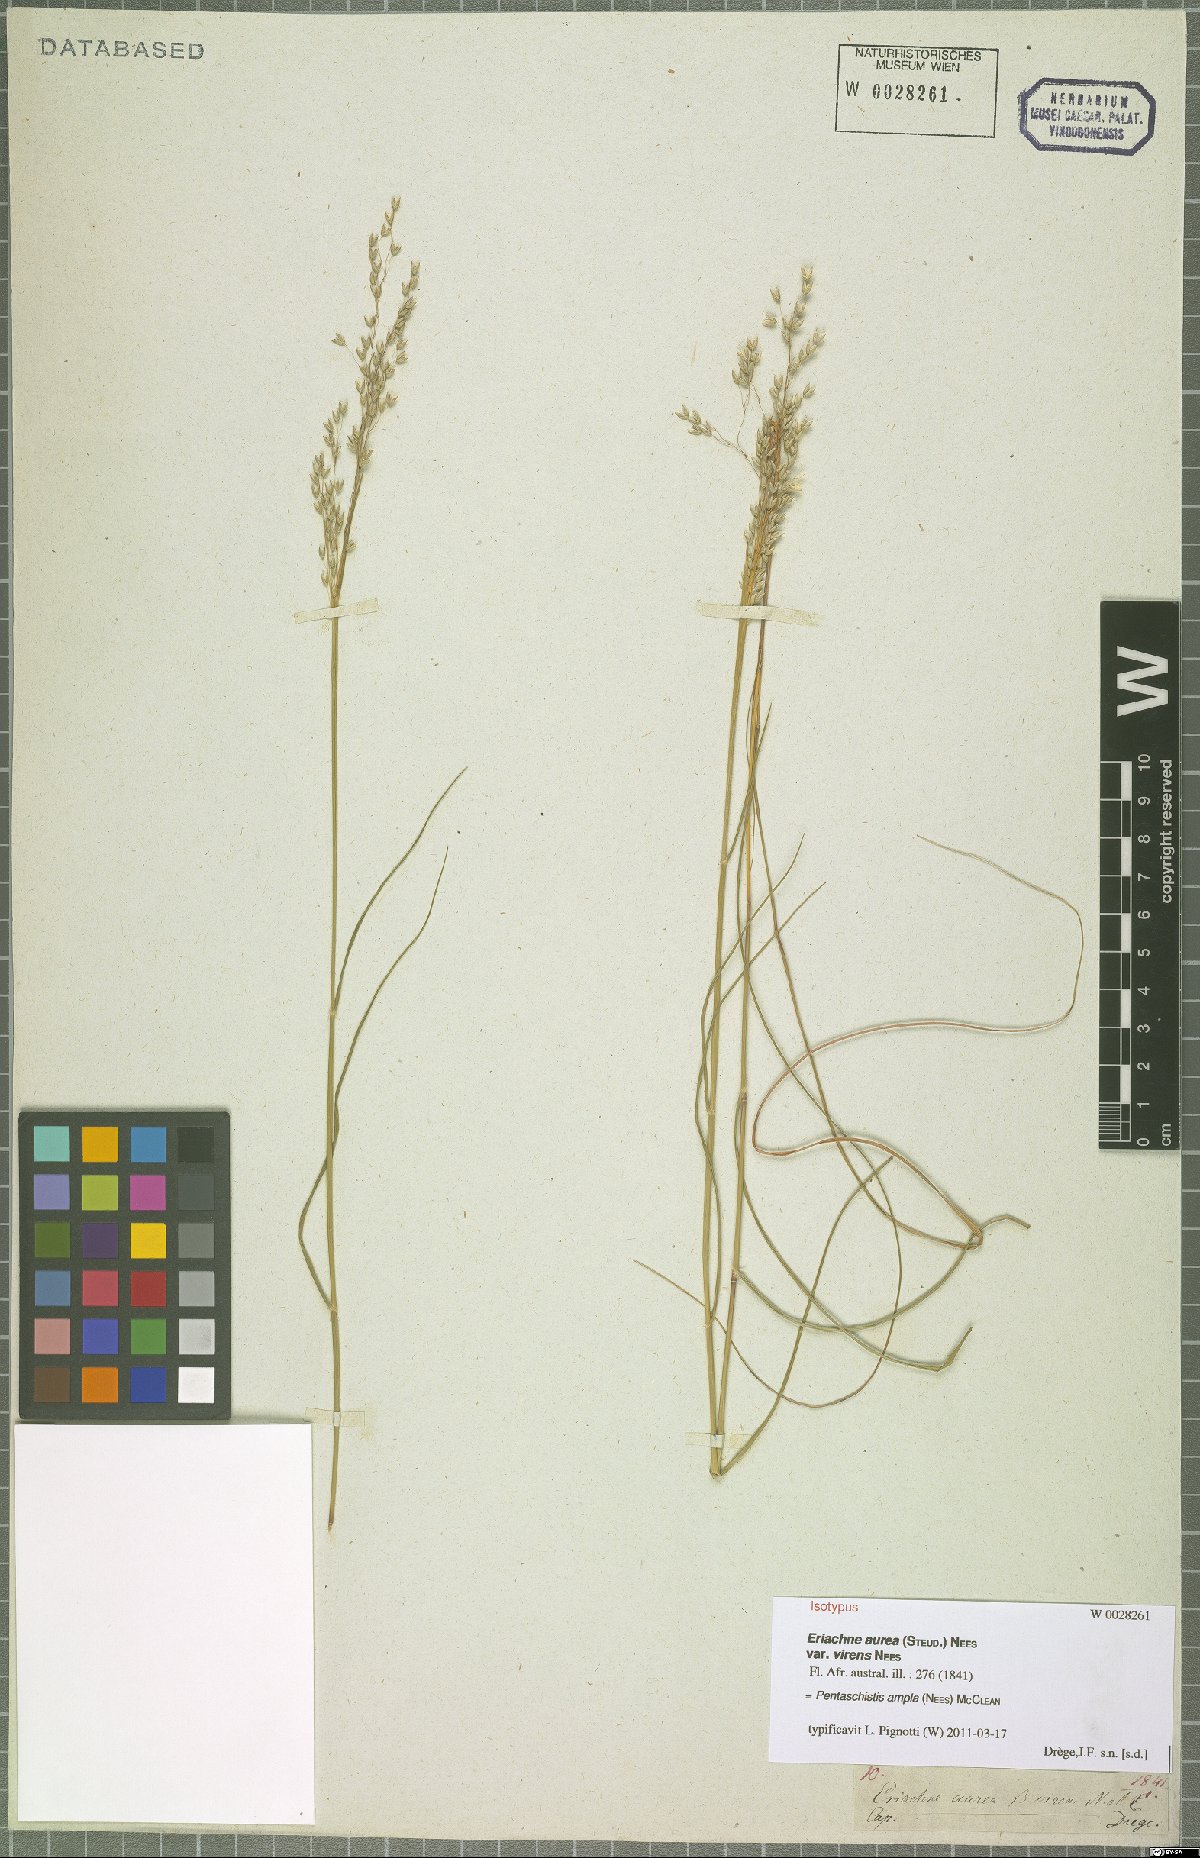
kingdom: Plantae
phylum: Tracheophyta
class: Liliopsida
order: Poales
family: Poaceae
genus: Pentameris
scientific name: Pentameris ampla
